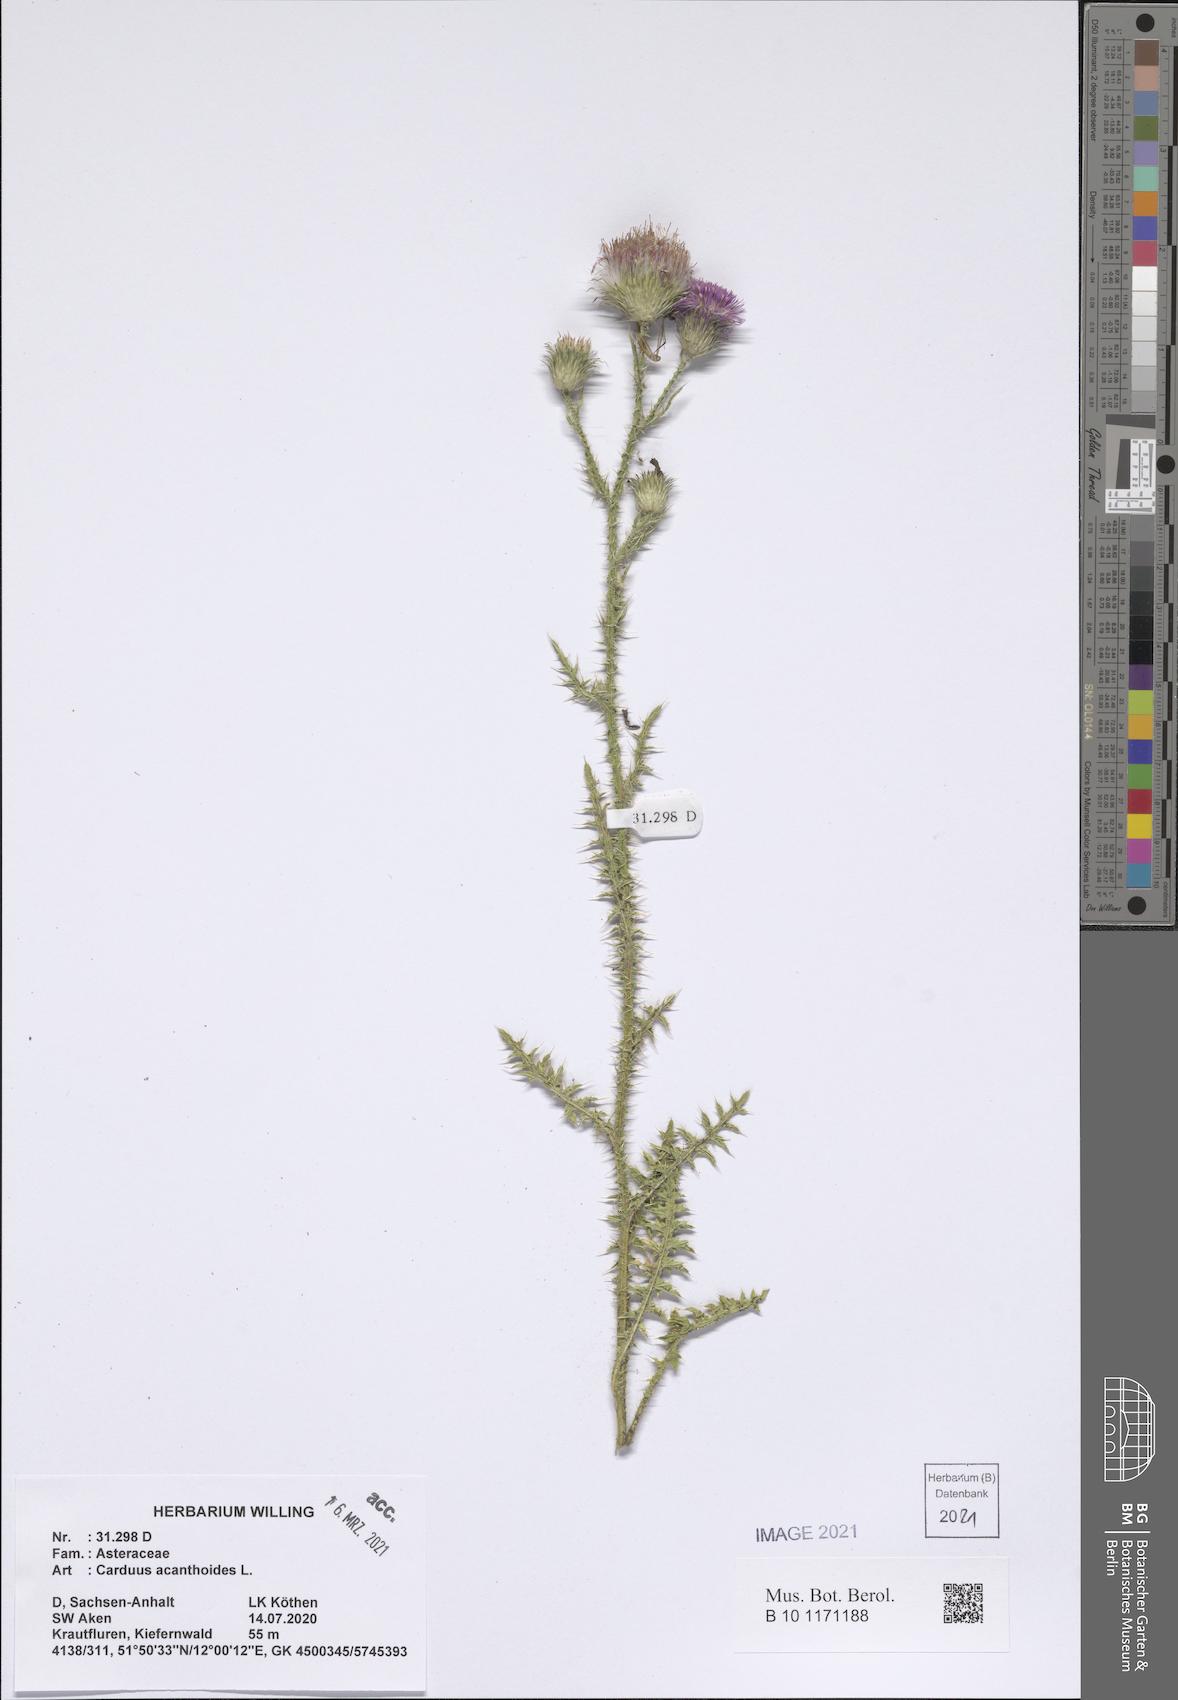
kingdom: Plantae
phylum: Tracheophyta
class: Magnoliopsida
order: Asterales
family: Asteraceae
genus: Carduus
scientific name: Carduus acanthoides
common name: Plumeless thistle
